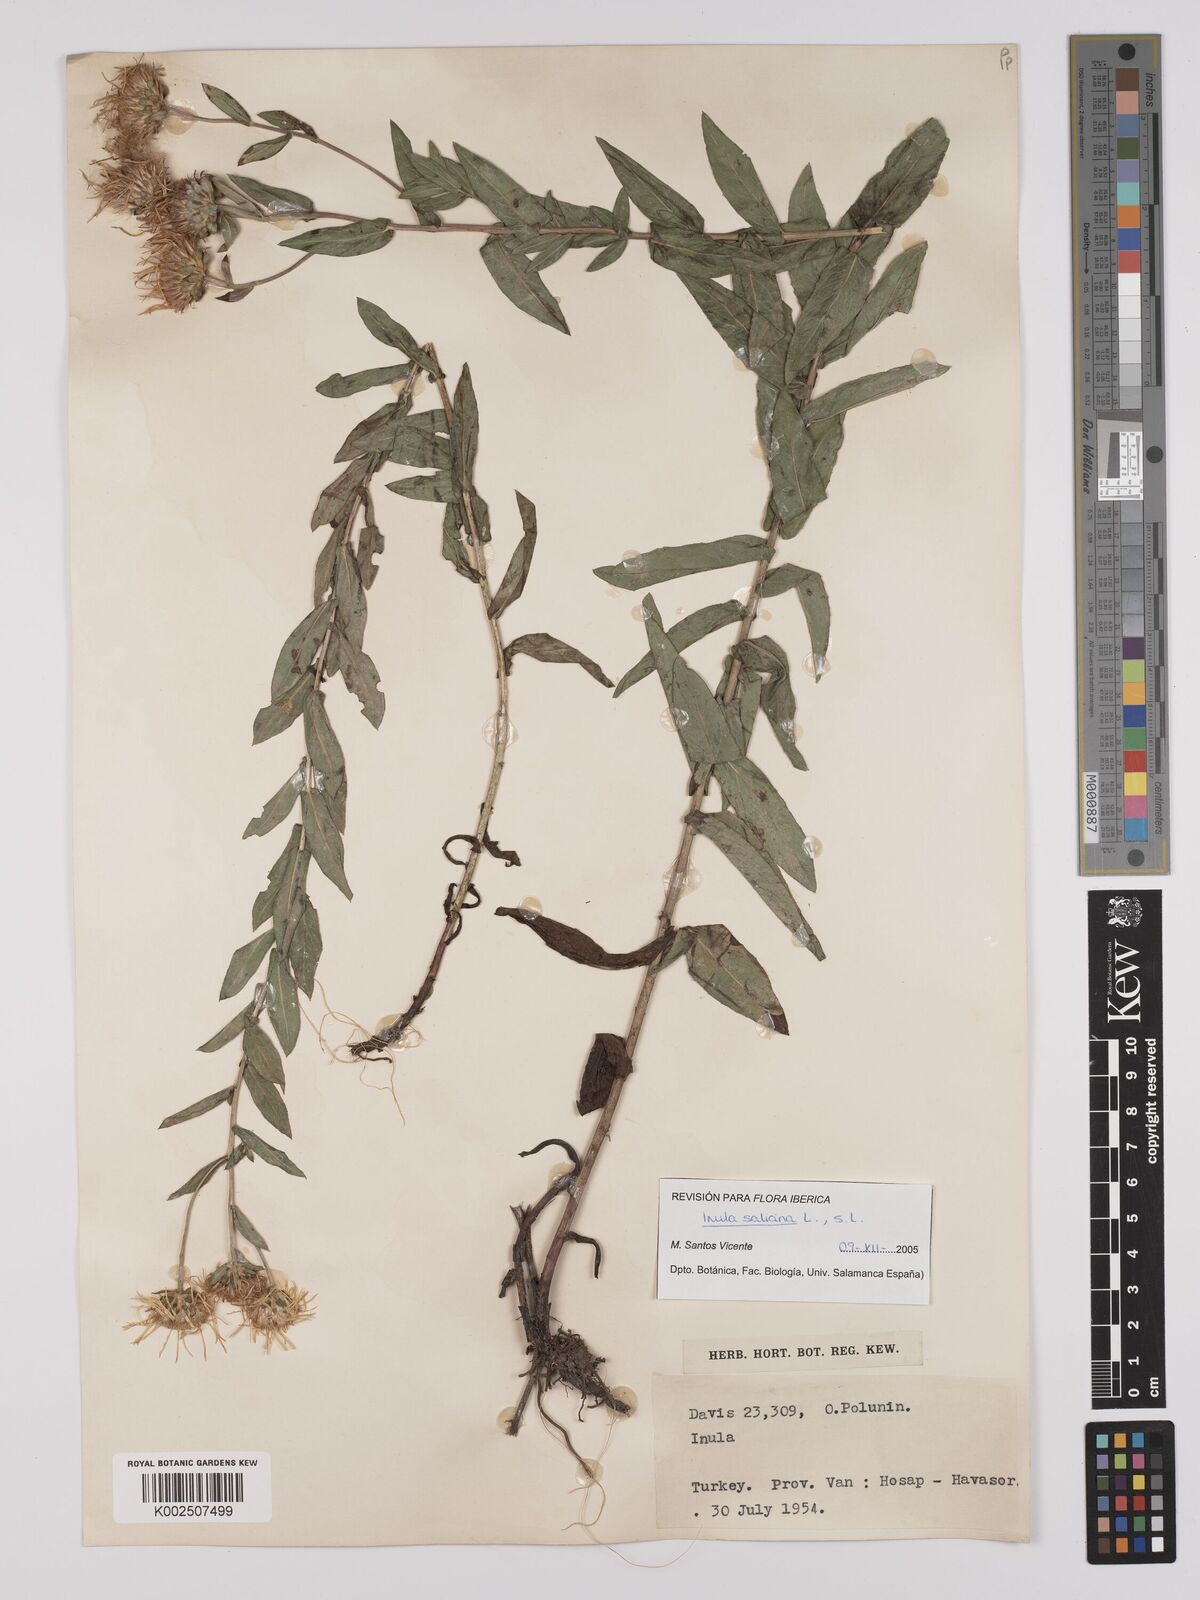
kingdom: Plantae
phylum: Tracheophyta
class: Magnoliopsida
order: Asterales
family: Asteraceae
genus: Pentanema
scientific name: Pentanema salicinum
